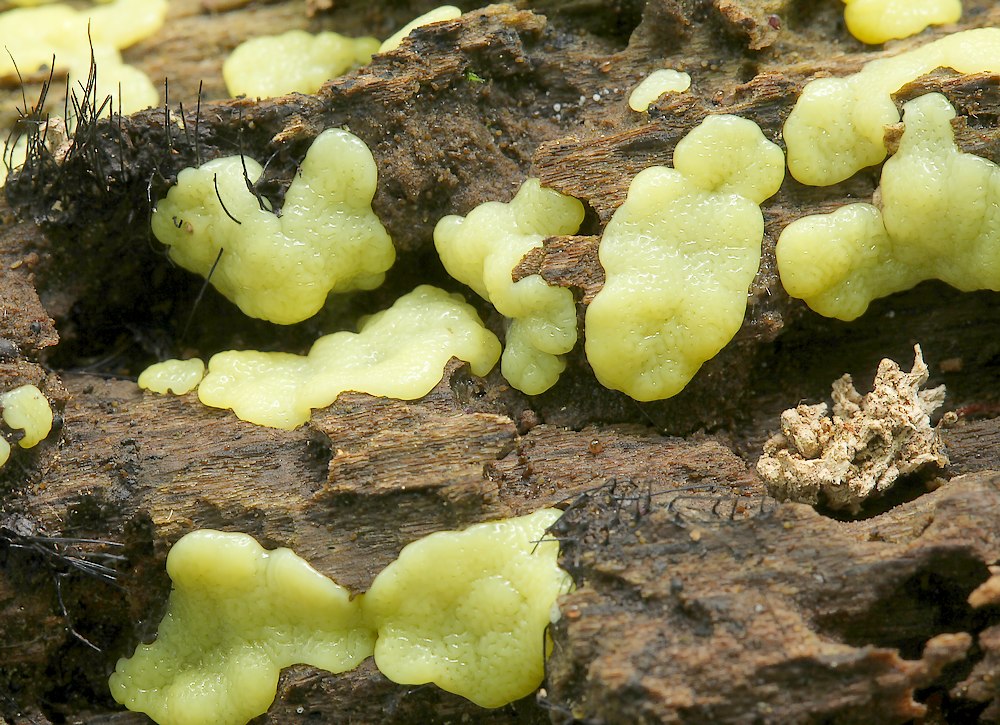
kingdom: Protozoa
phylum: Mycetozoa
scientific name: Mycetozoa
